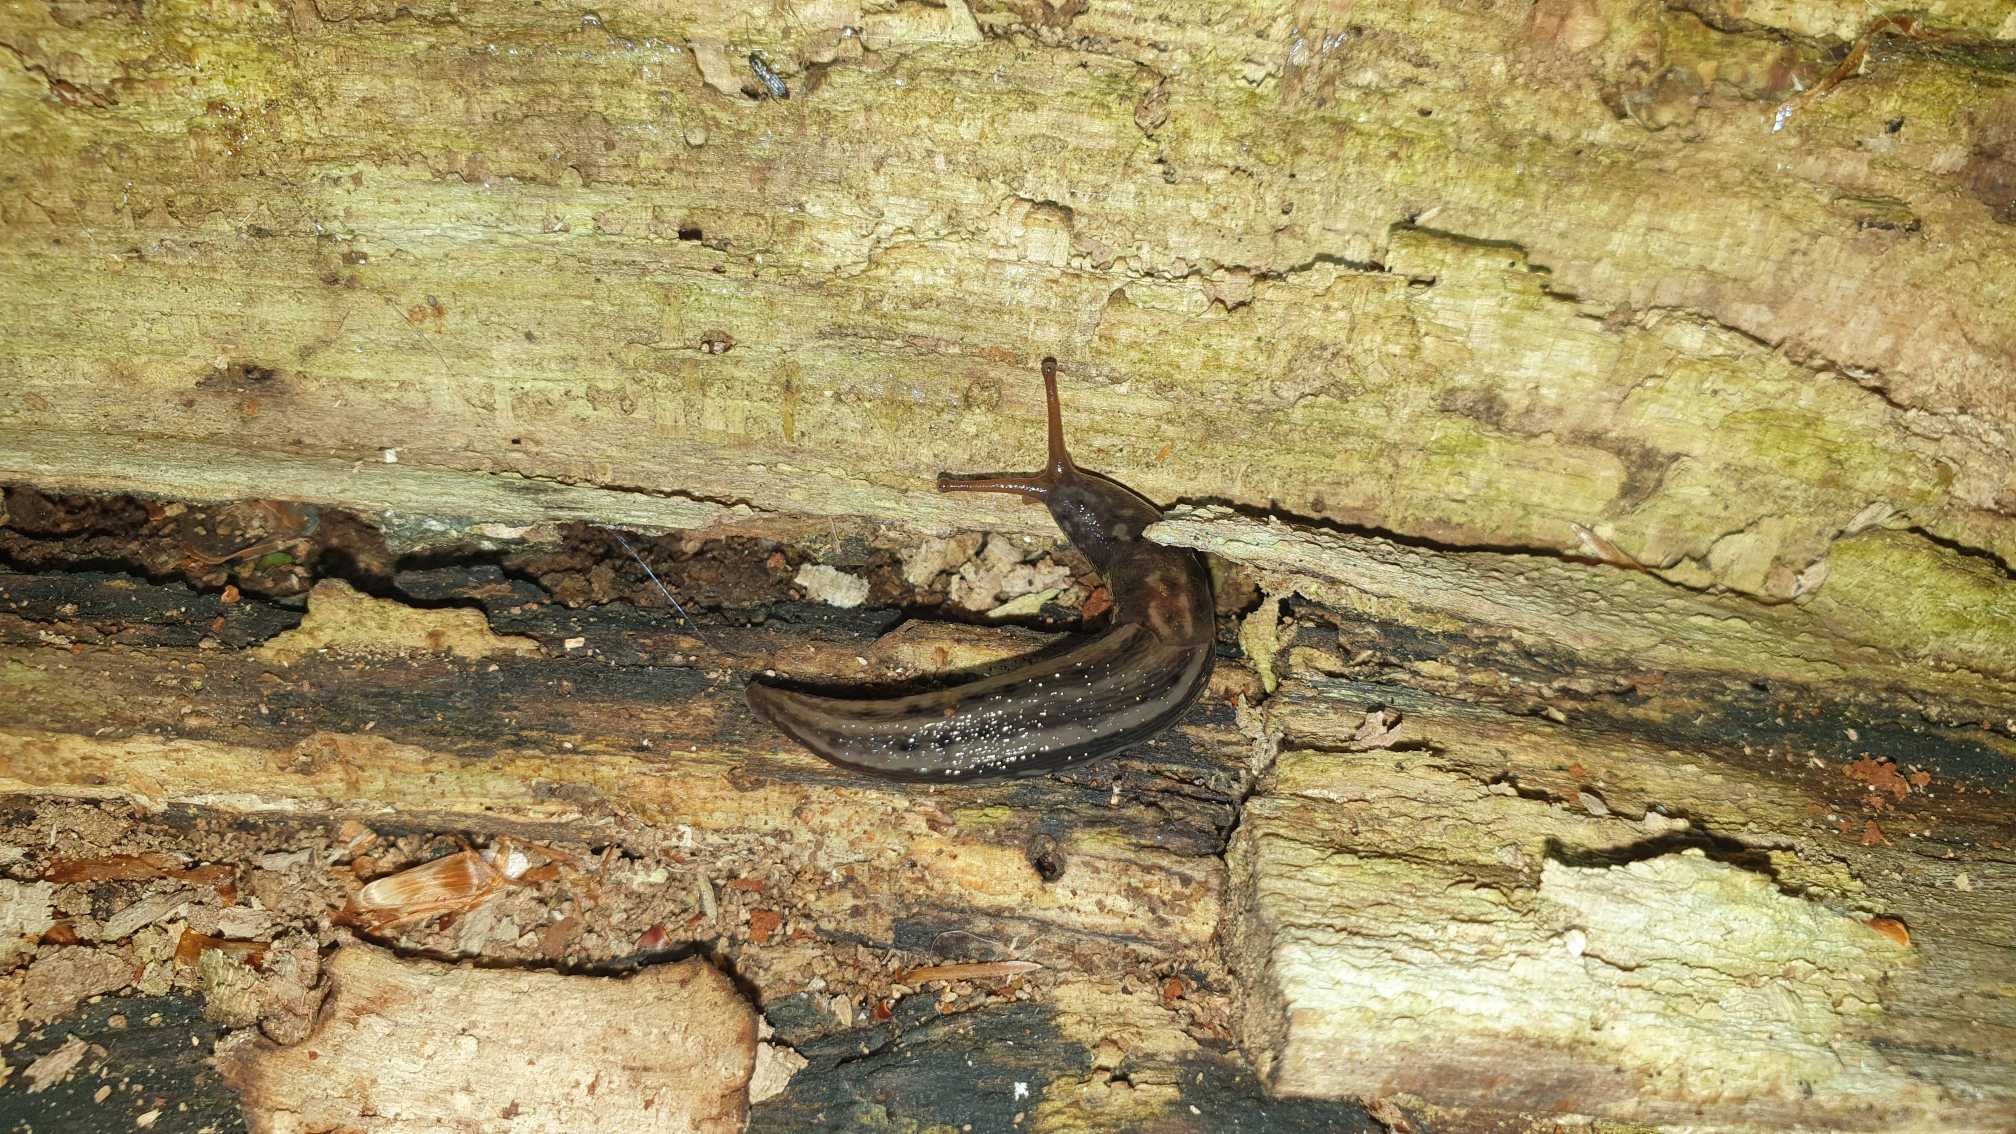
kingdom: Animalia
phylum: Mollusca
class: Gastropoda
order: Stylommatophora
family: Limacidae
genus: Limax
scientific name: Limax maximus
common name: Pantersnegl
